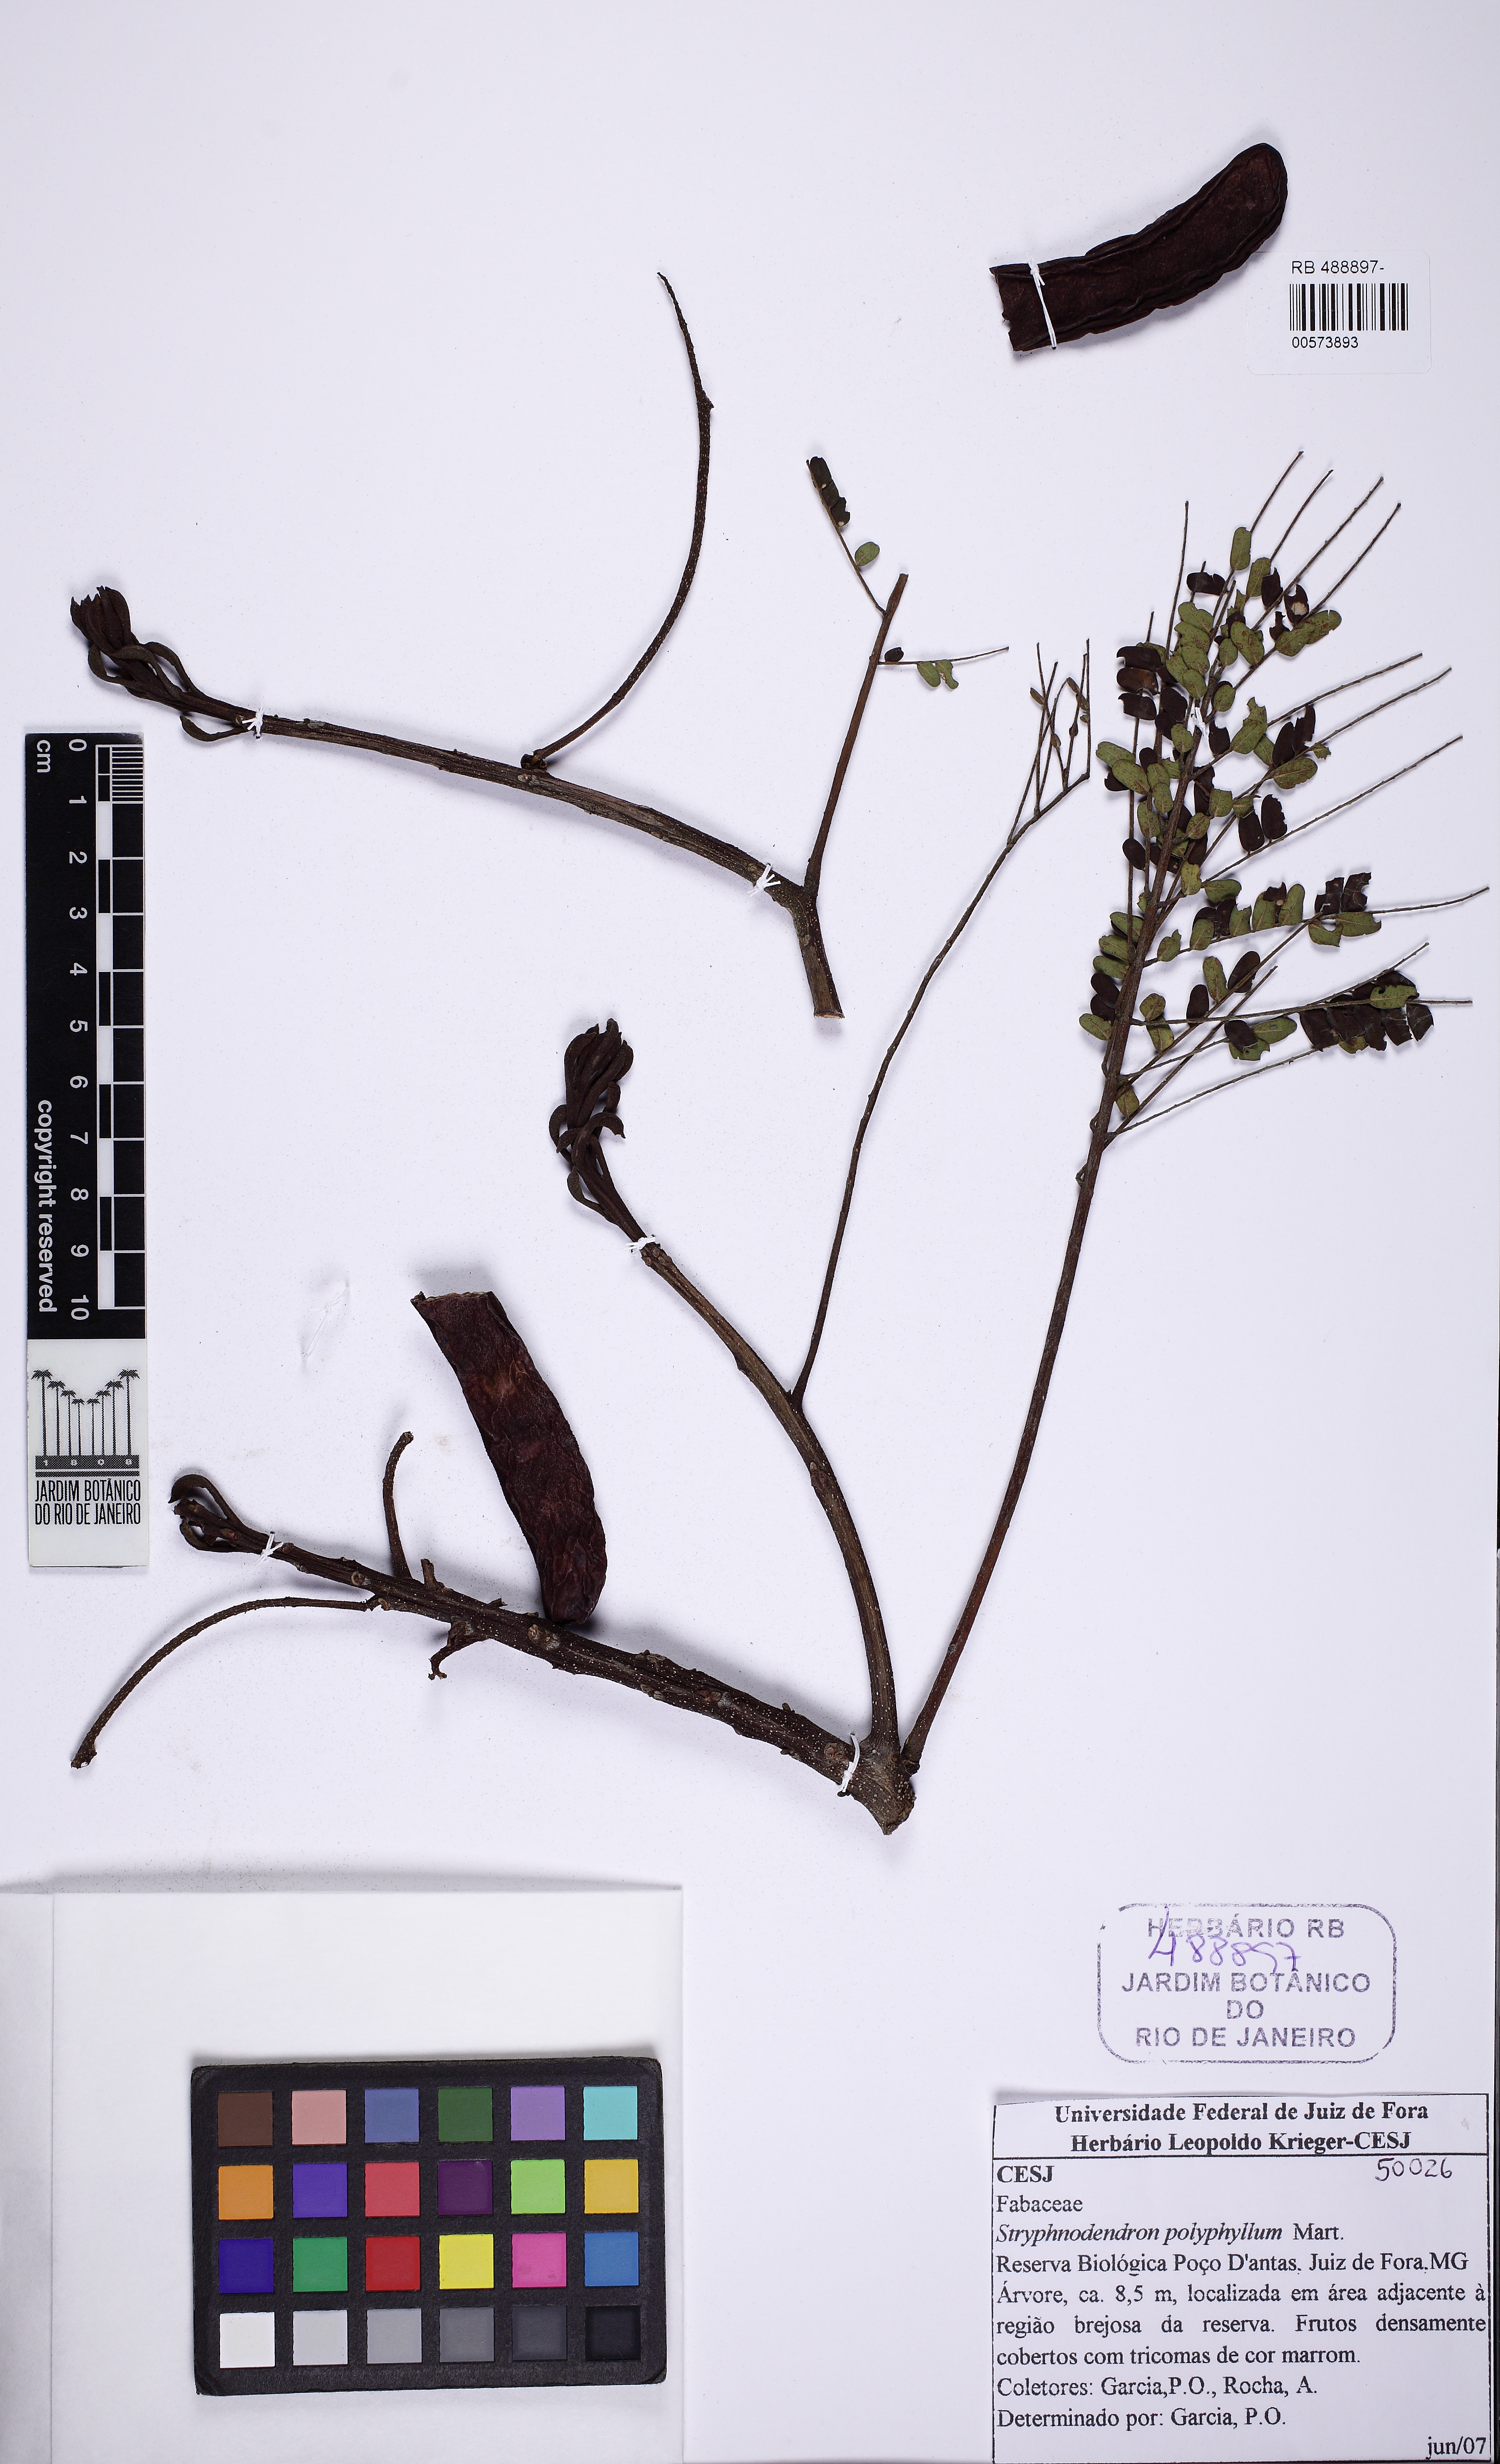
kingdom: Plantae
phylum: Tracheophyta
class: Magnoliopsida
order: Fabales
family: Fabaceae
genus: Stryphnodendron
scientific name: Stryphnodendron polyphyllum
